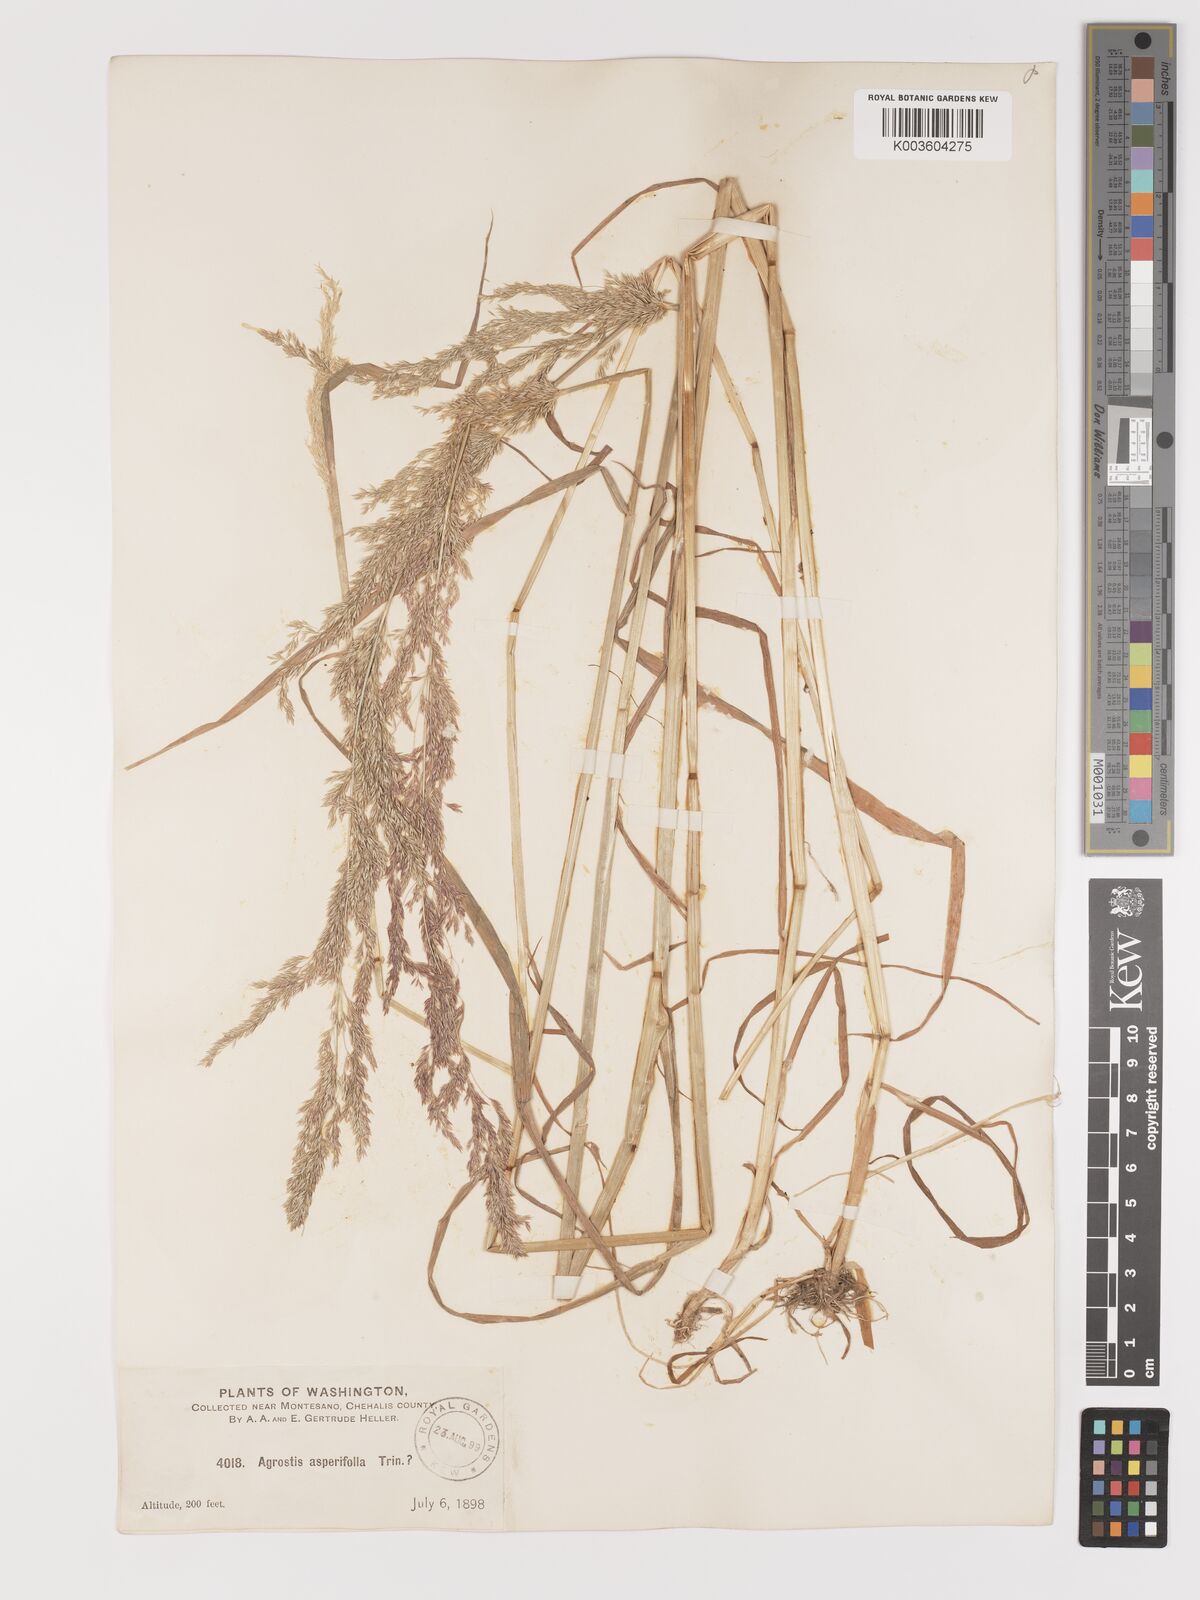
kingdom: Plantae
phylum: Tracheophyta
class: Liliopsida
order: Poales
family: Poaceae
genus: Agrostis
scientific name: Agrostis exarata
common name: Spike bent
